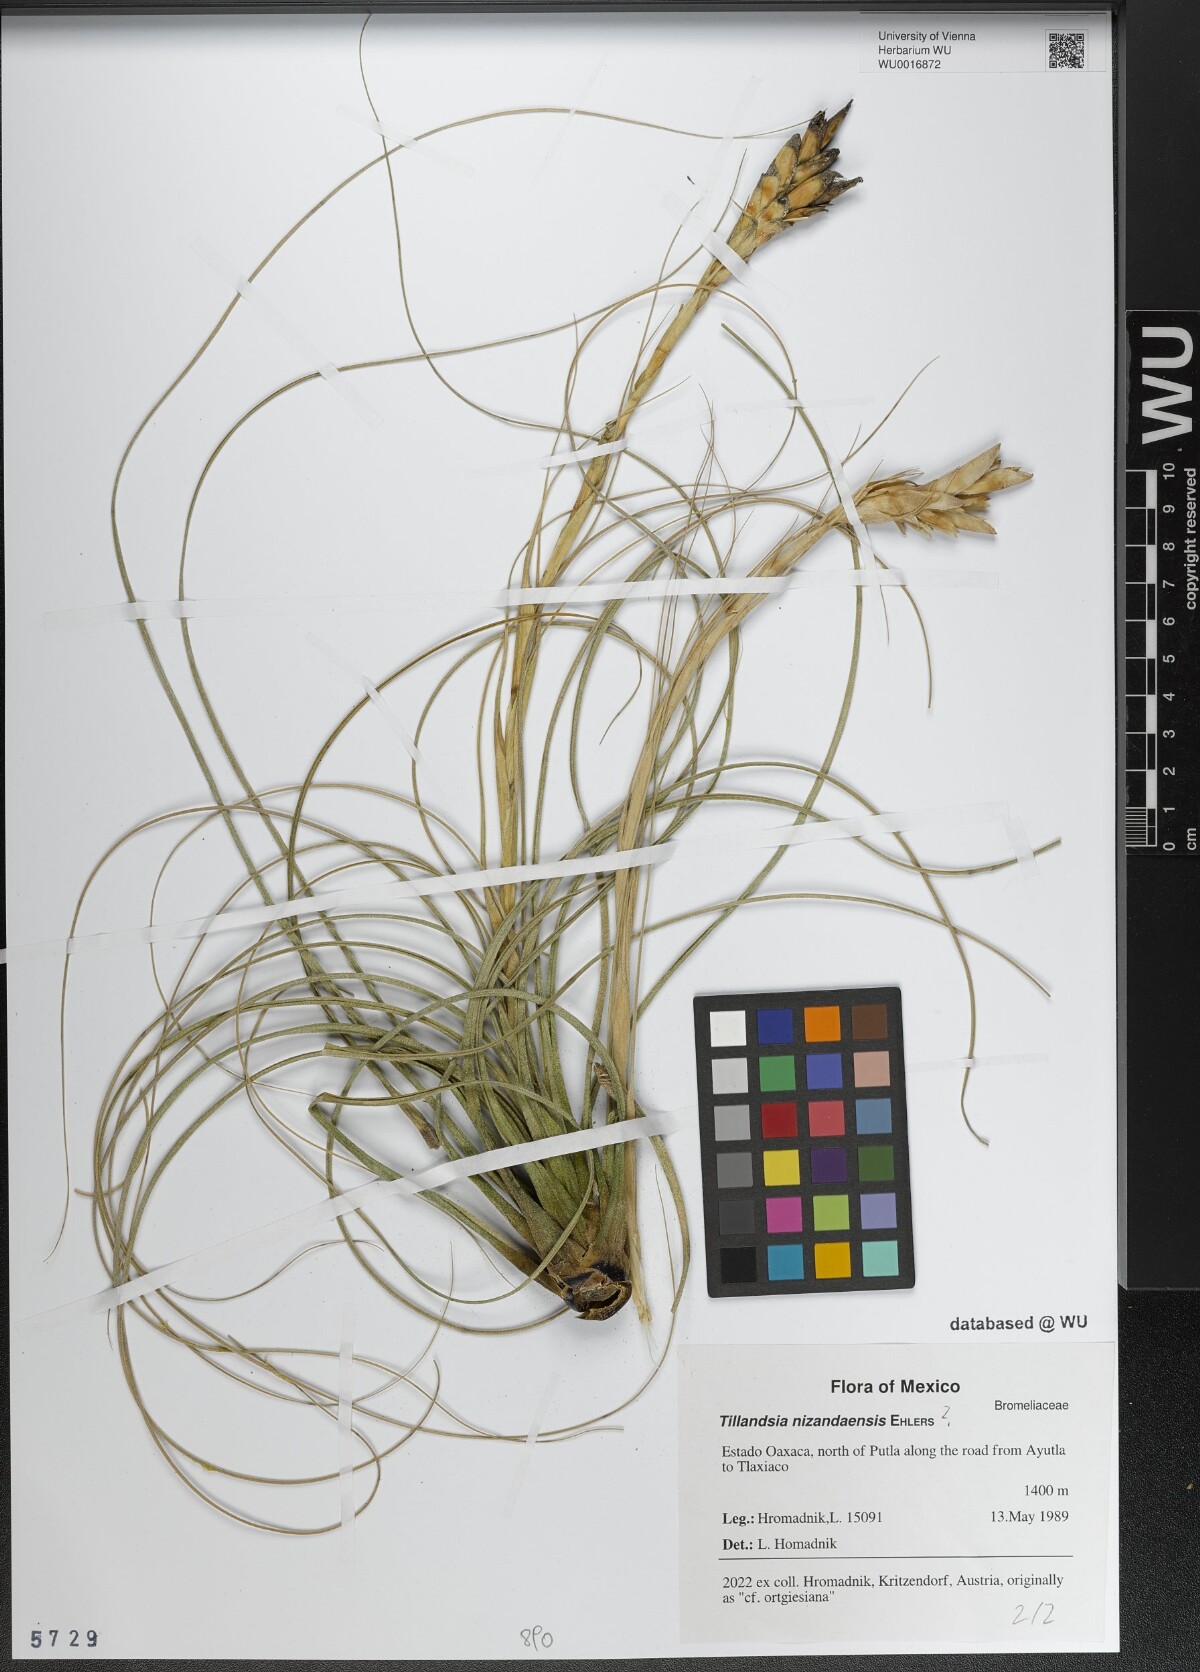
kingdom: Plantae
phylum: Tracheophyta
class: Liliopsida
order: Poales
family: Bromeliaceae
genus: Tillandsia
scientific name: Tillandsia nizandaensis
